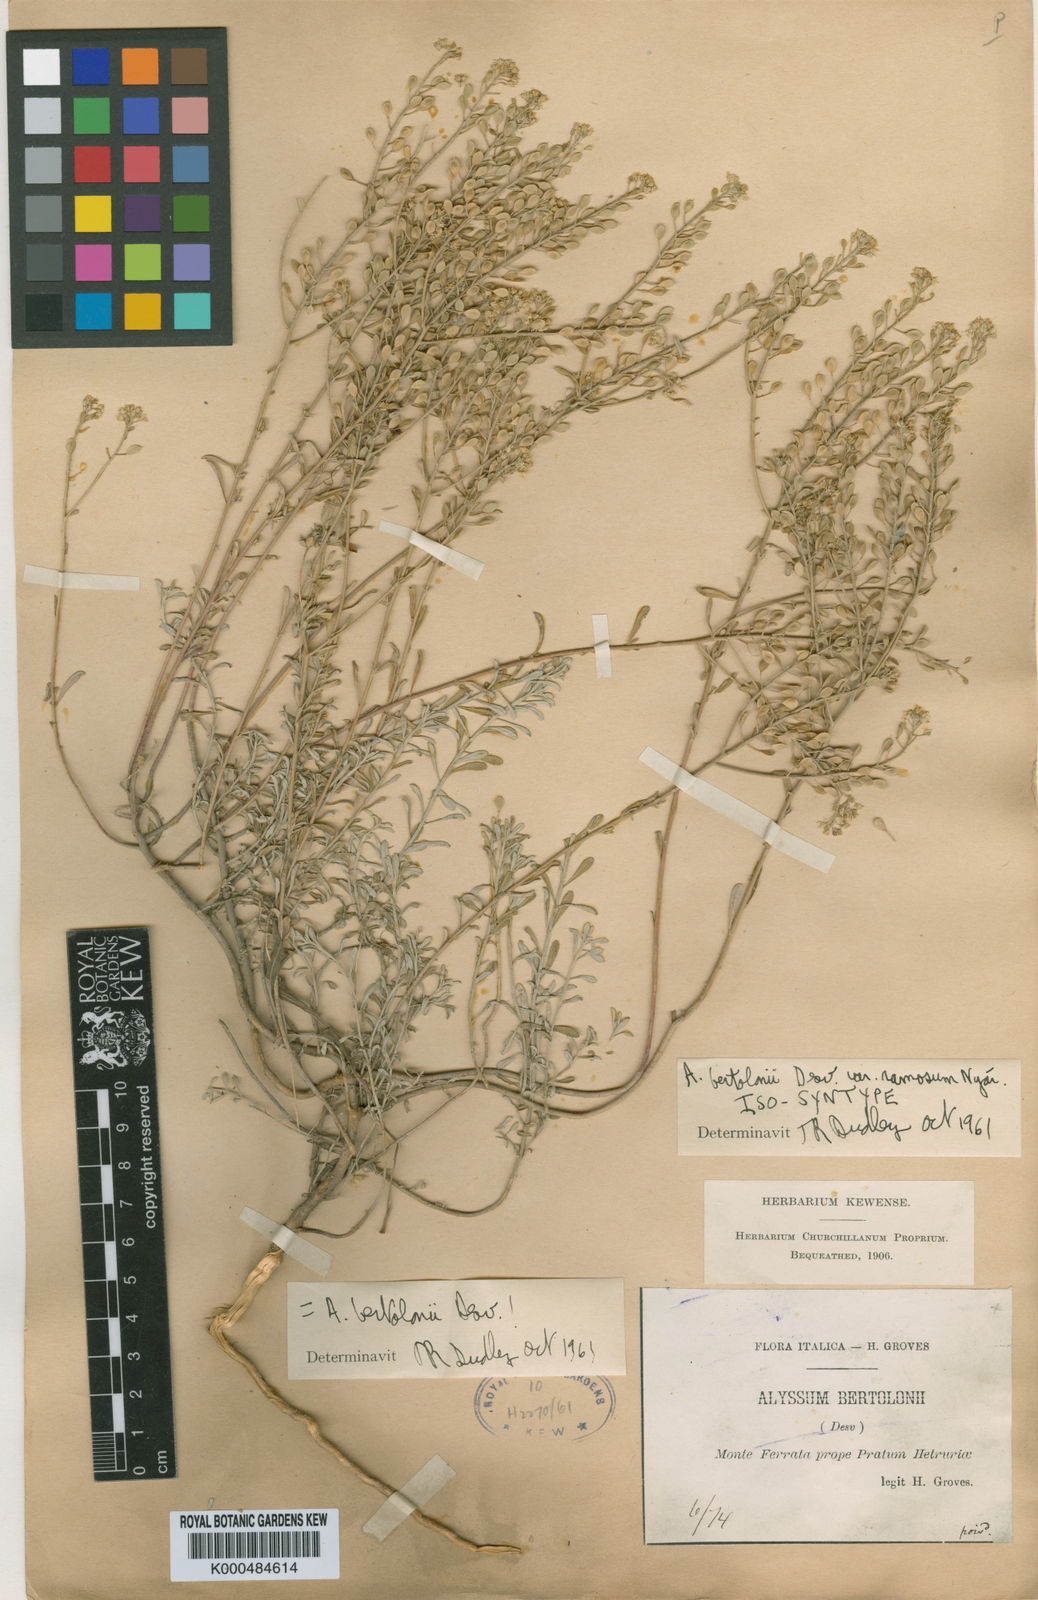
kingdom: Plantae
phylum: Tracheophyta
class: Magnoliopsida
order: Brassicales
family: Brassicaceae
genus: Odontarrhena
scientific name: Odontarrhena bertolonii
